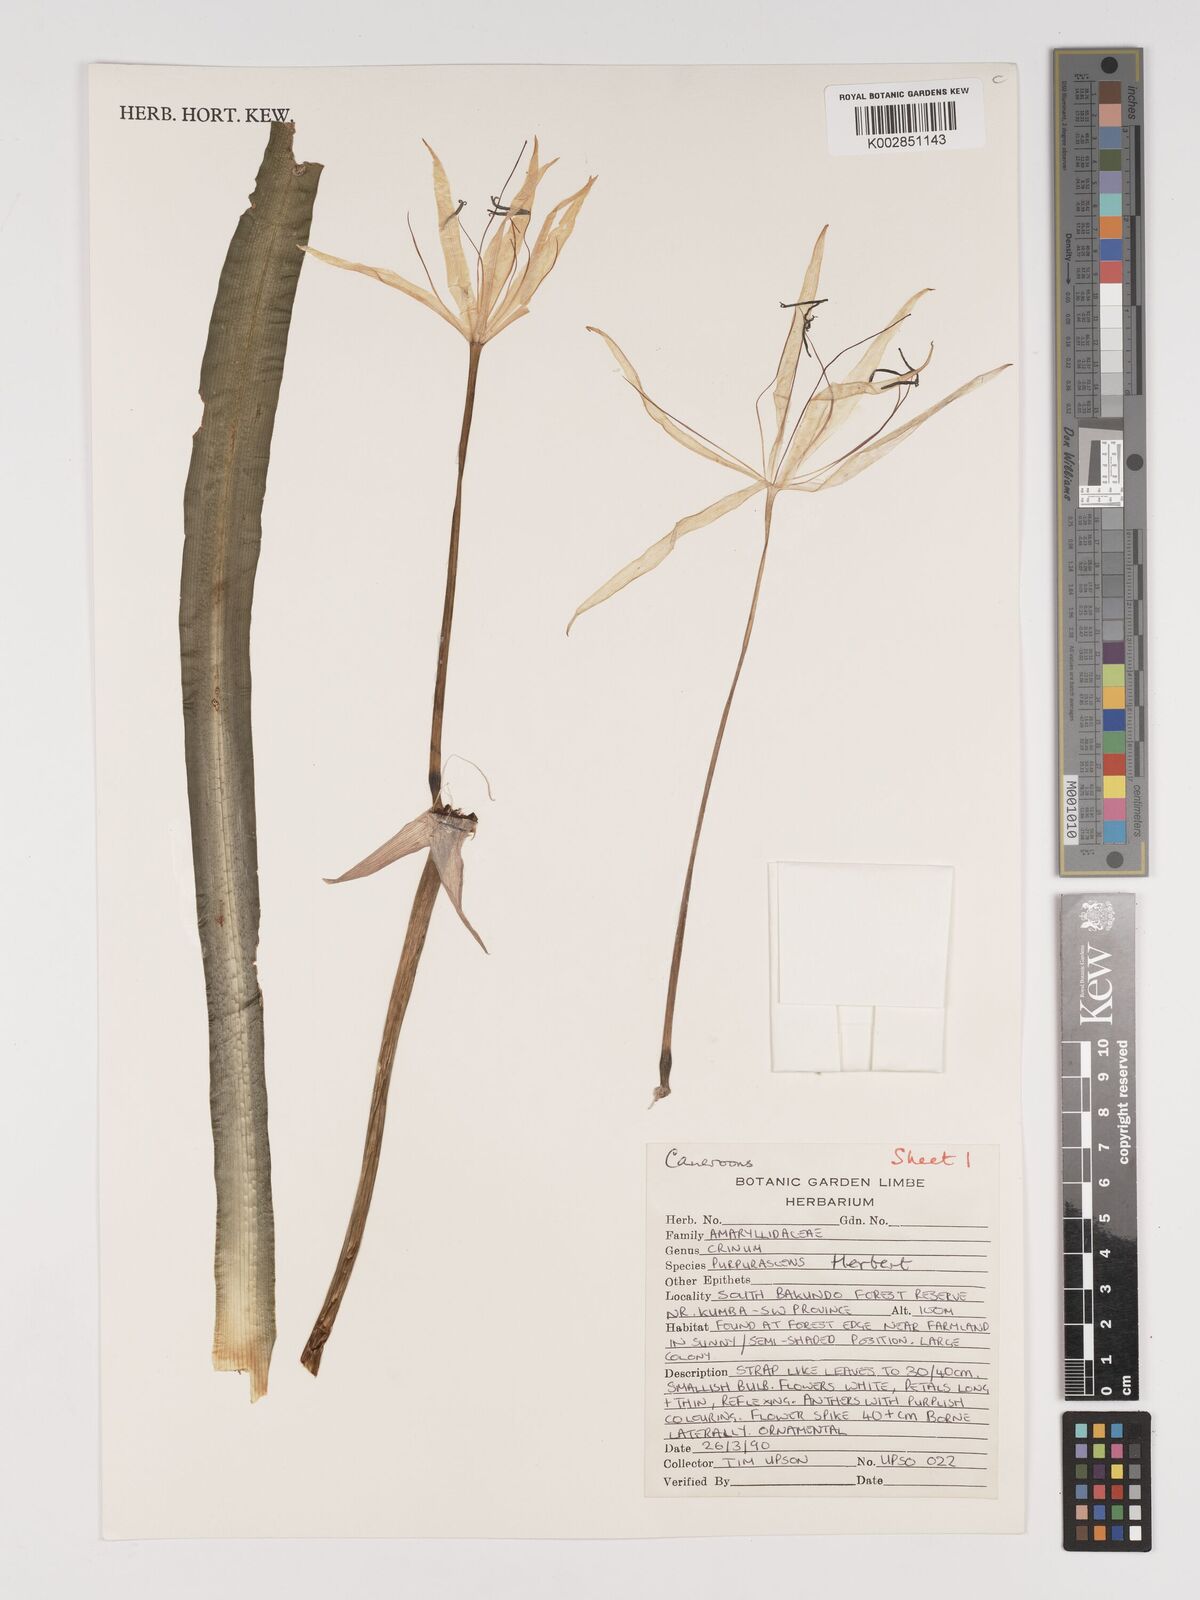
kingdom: Plantae
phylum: Tracheophyta
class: Liliopsida
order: Asparagales
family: Amaryllidaceae
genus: Crinum
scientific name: Crinum purpurascens
